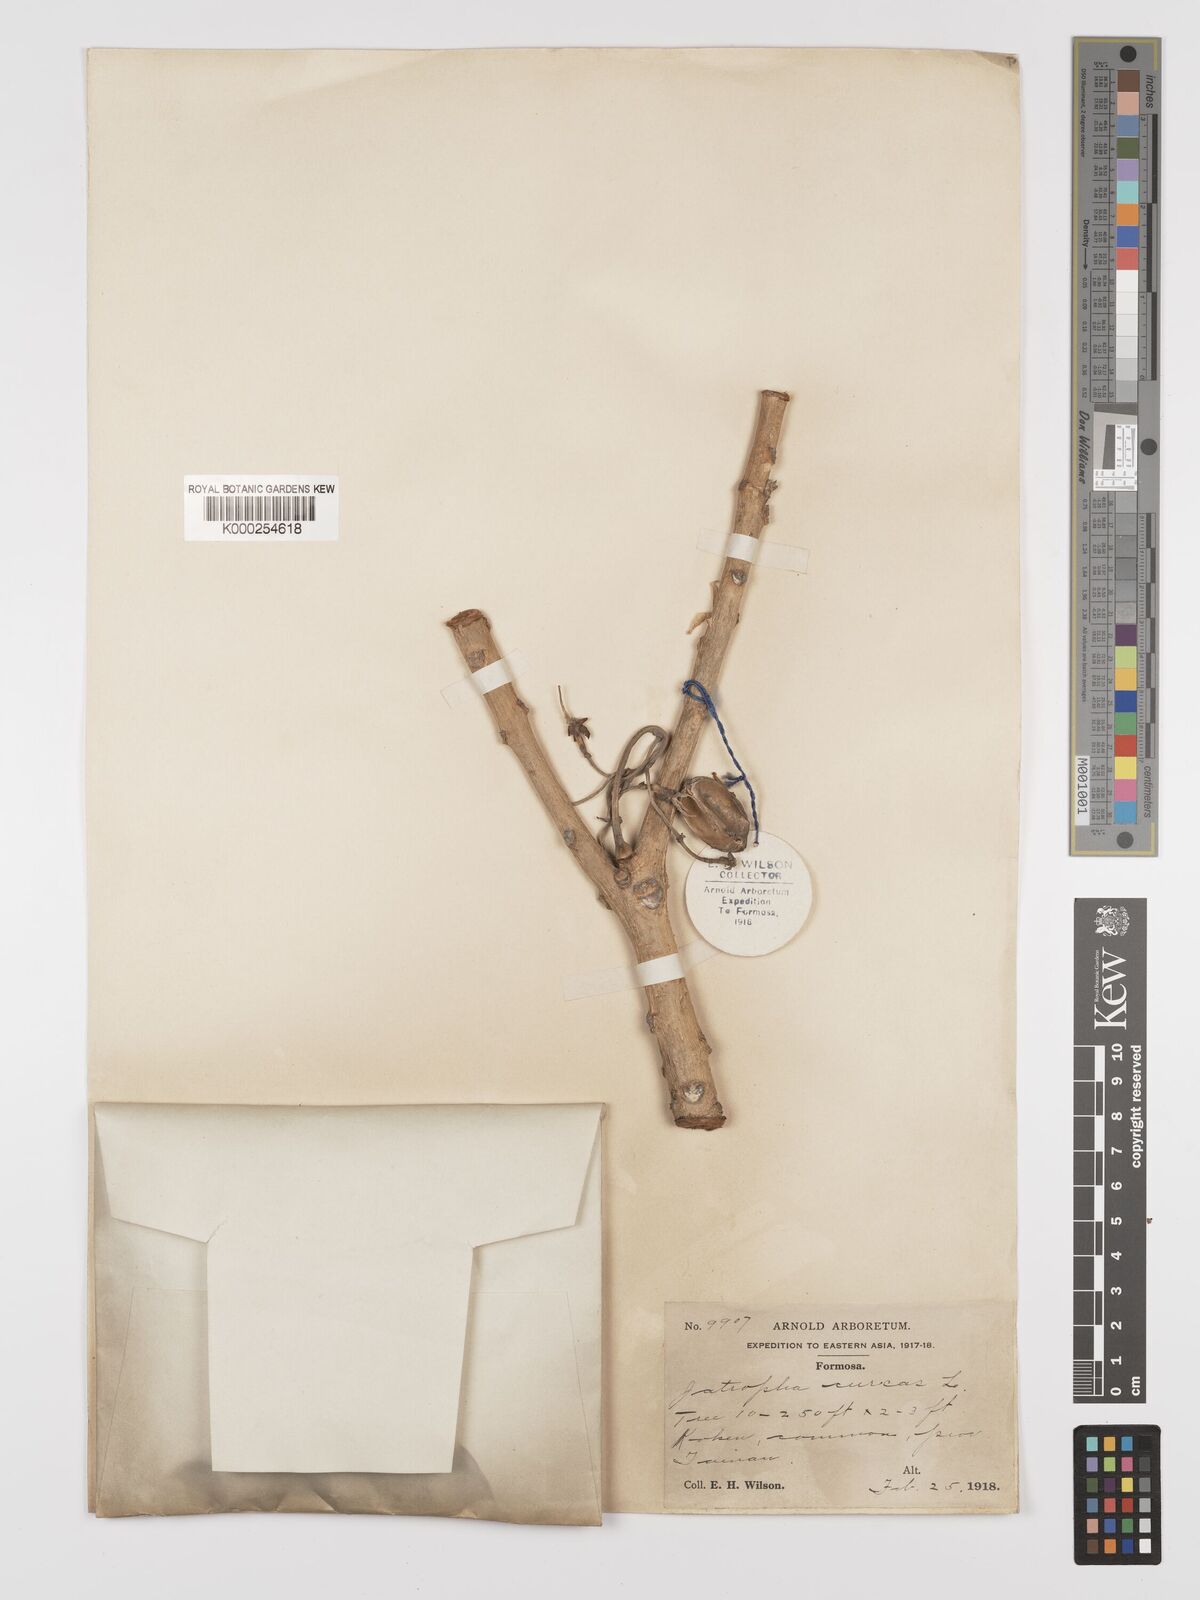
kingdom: Plantae
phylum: Tracheophyta
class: Magnoliopsida
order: Malpighiales
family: Euphorbiaceae
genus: Jatropha
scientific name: Jatropha curcas
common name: Barbados nut
